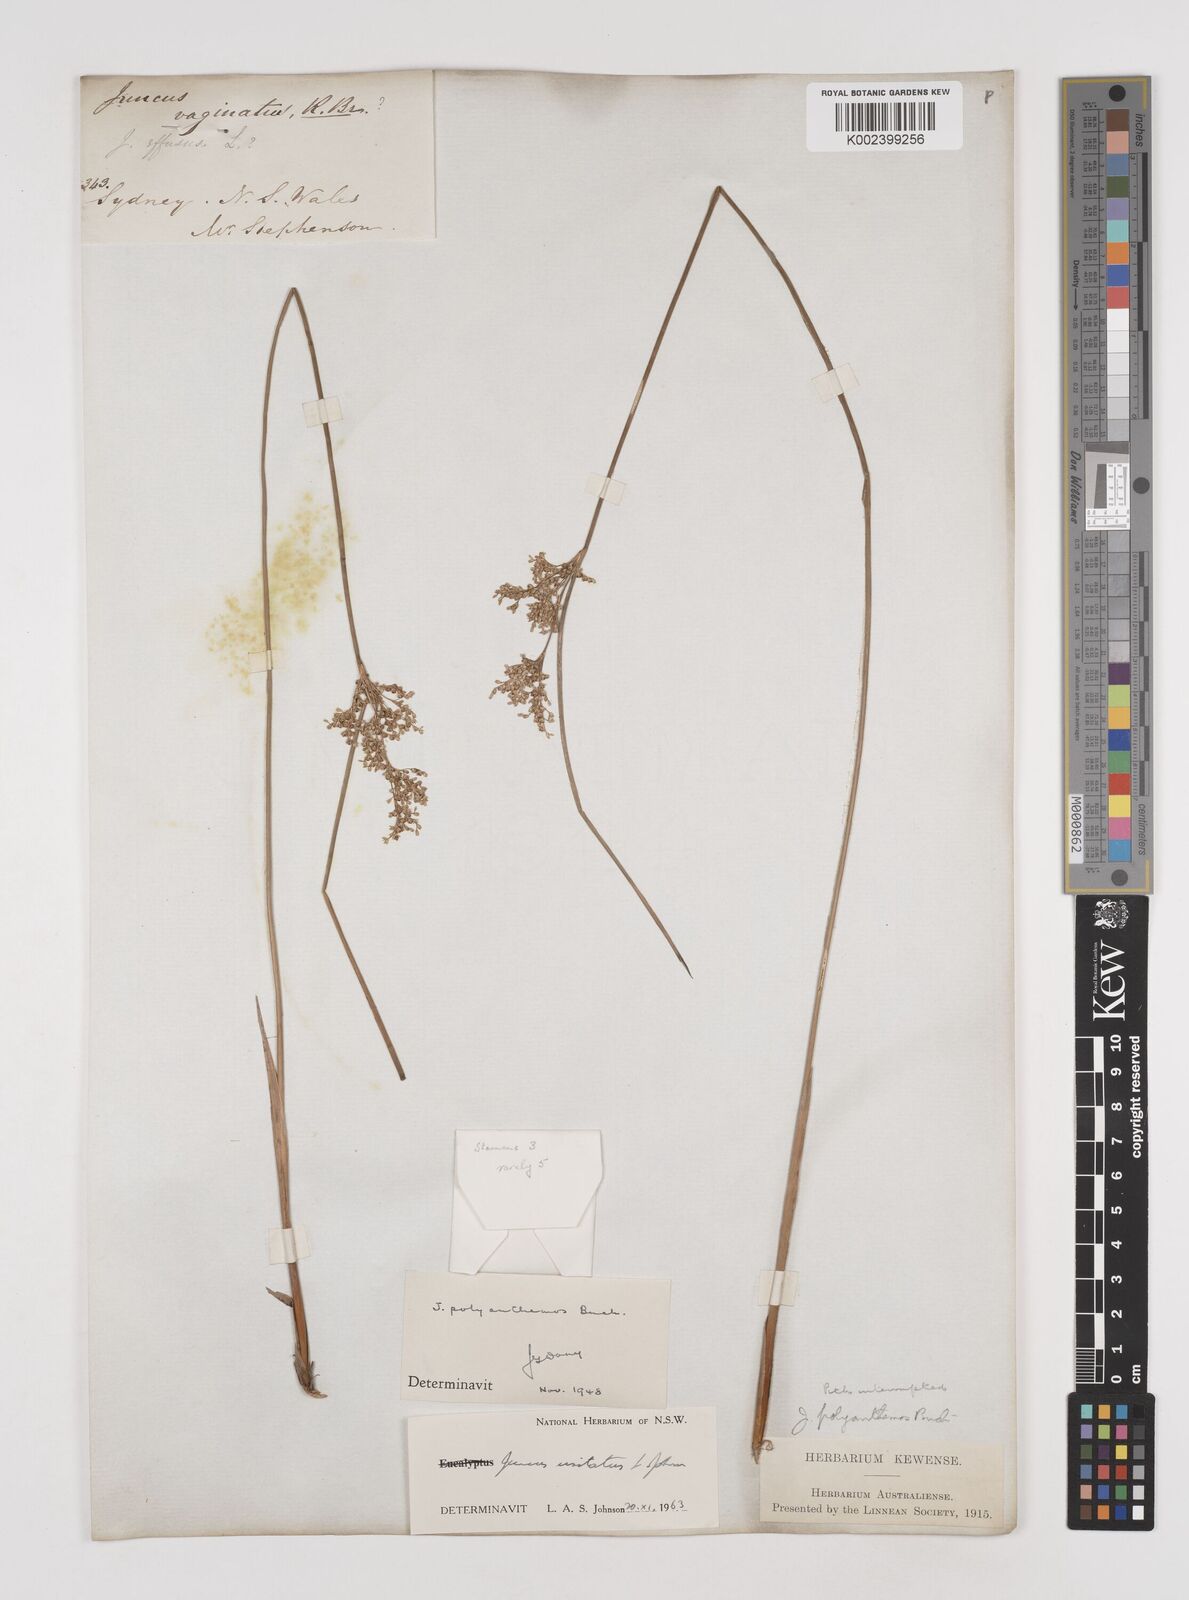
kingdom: Plantae
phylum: Tracheophyta
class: Liliopsida
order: Poales
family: Juncaceae
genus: Juncus
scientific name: Juncus usitatus
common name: Rush
